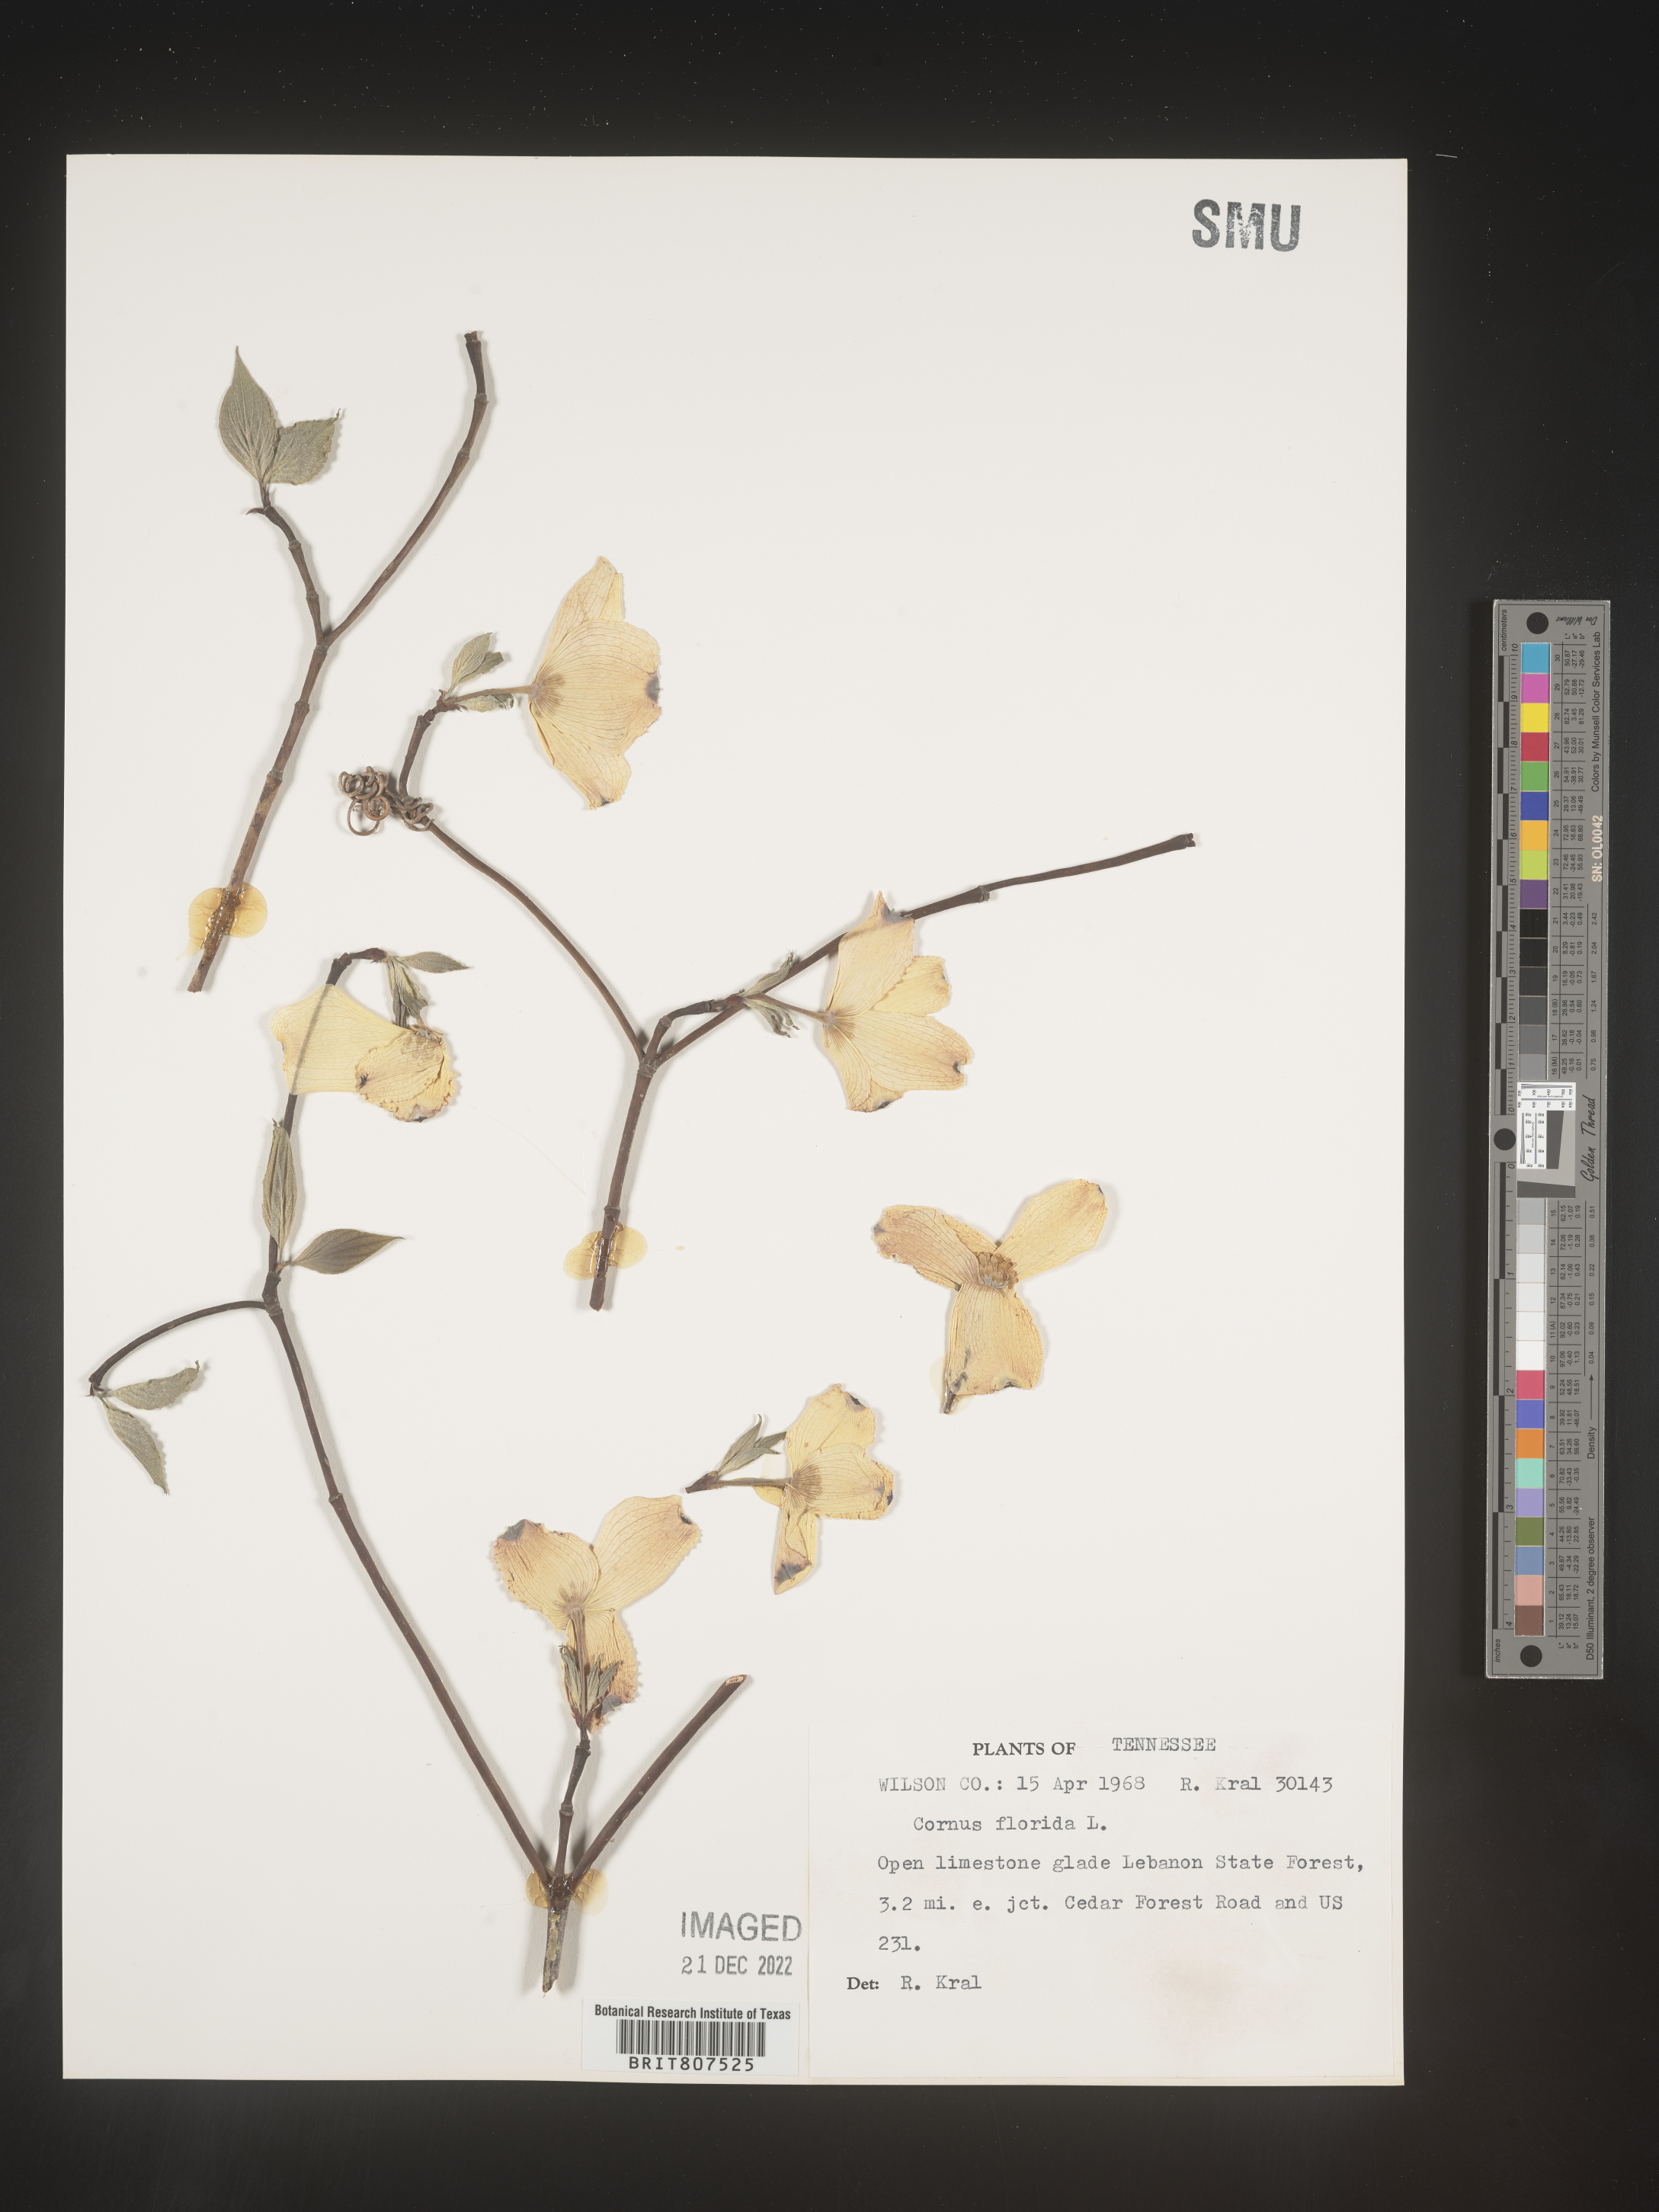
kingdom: Plantae
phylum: Tracheophyta
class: Magnoliopsida
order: Cornales
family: Cornaceae
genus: Cornus
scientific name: Cornus florida
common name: Flowering dogwood
